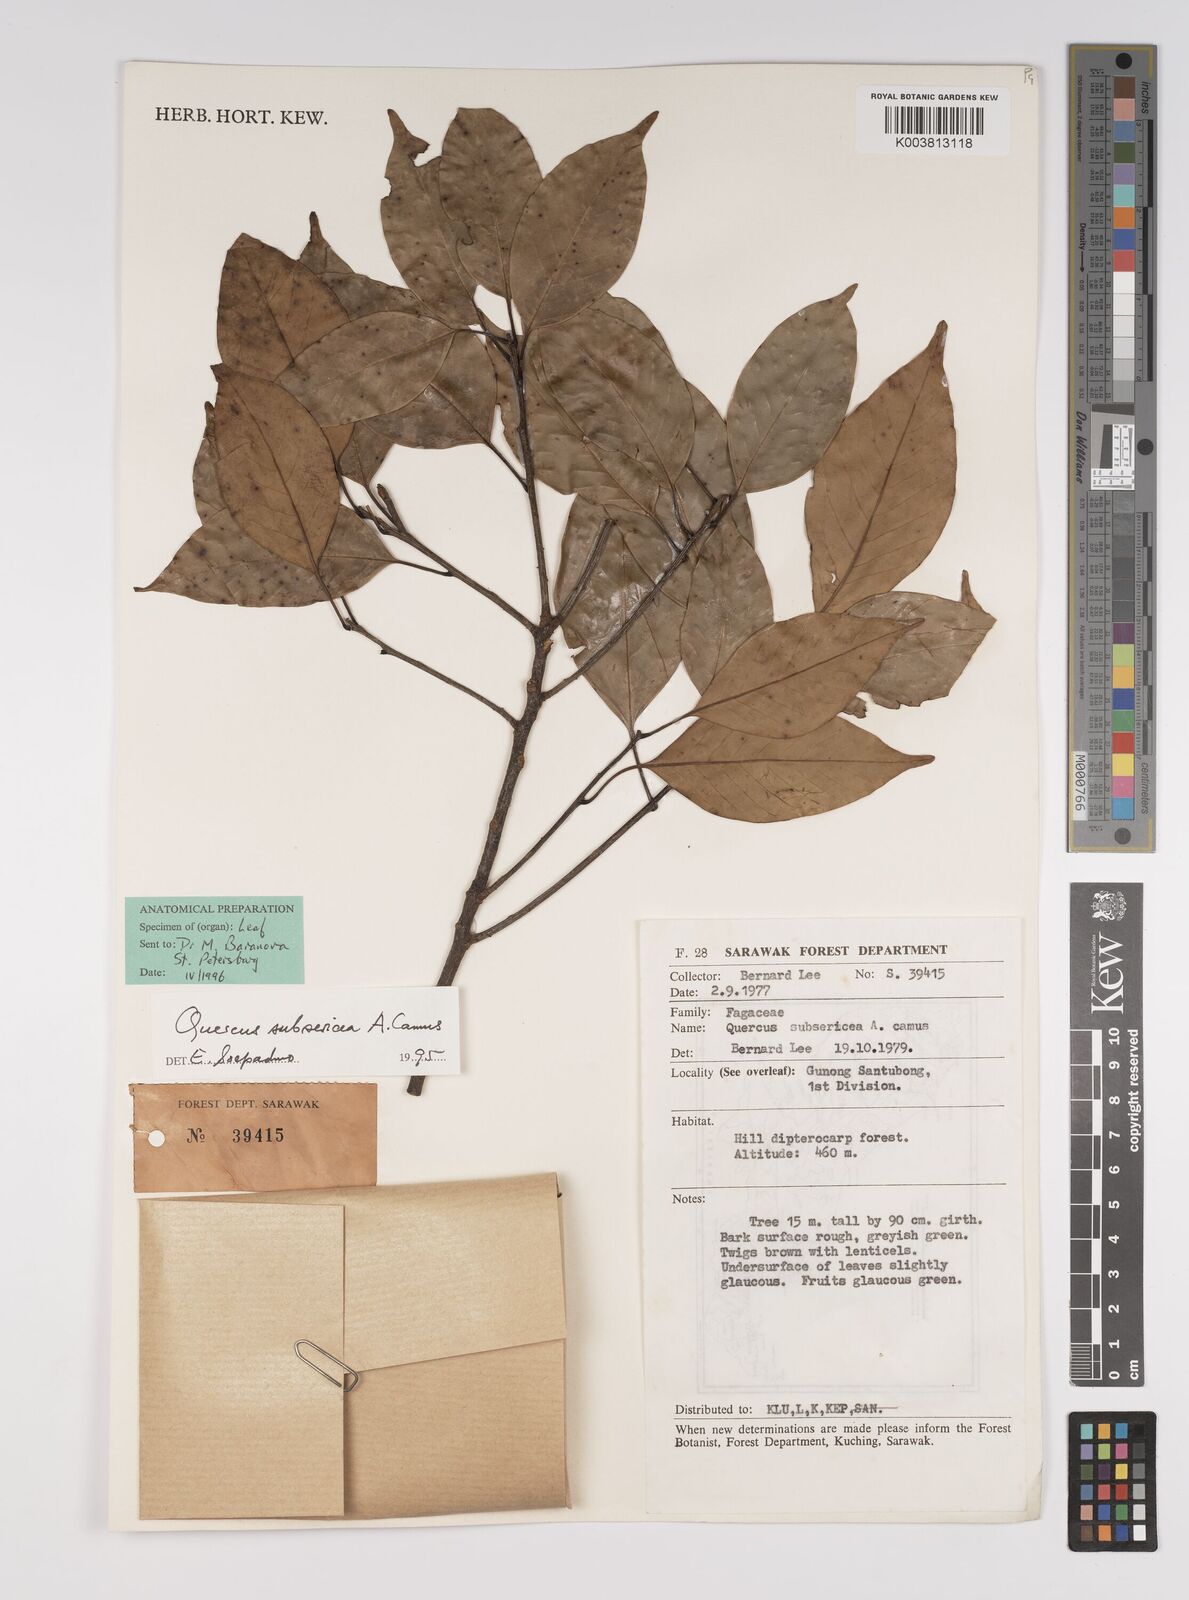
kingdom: Plantae
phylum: Tracheophyta
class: Magnoliopsida
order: Fagales
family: Fagaceae
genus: Quercus
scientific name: Quercus subsericea
